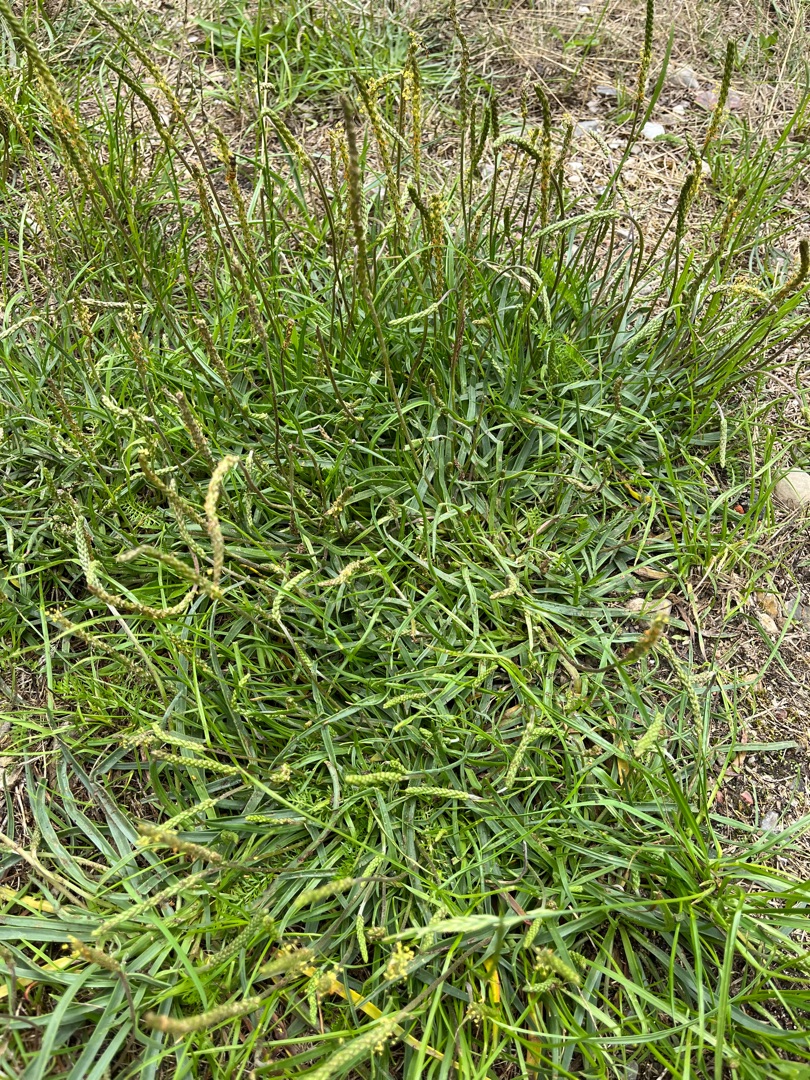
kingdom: Plantae
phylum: Tracheophyta
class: Magnoliopsida
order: Lamiales
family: Plantaginaceae
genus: Plantago
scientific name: Plantago maritima
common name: Strand-vejbred
